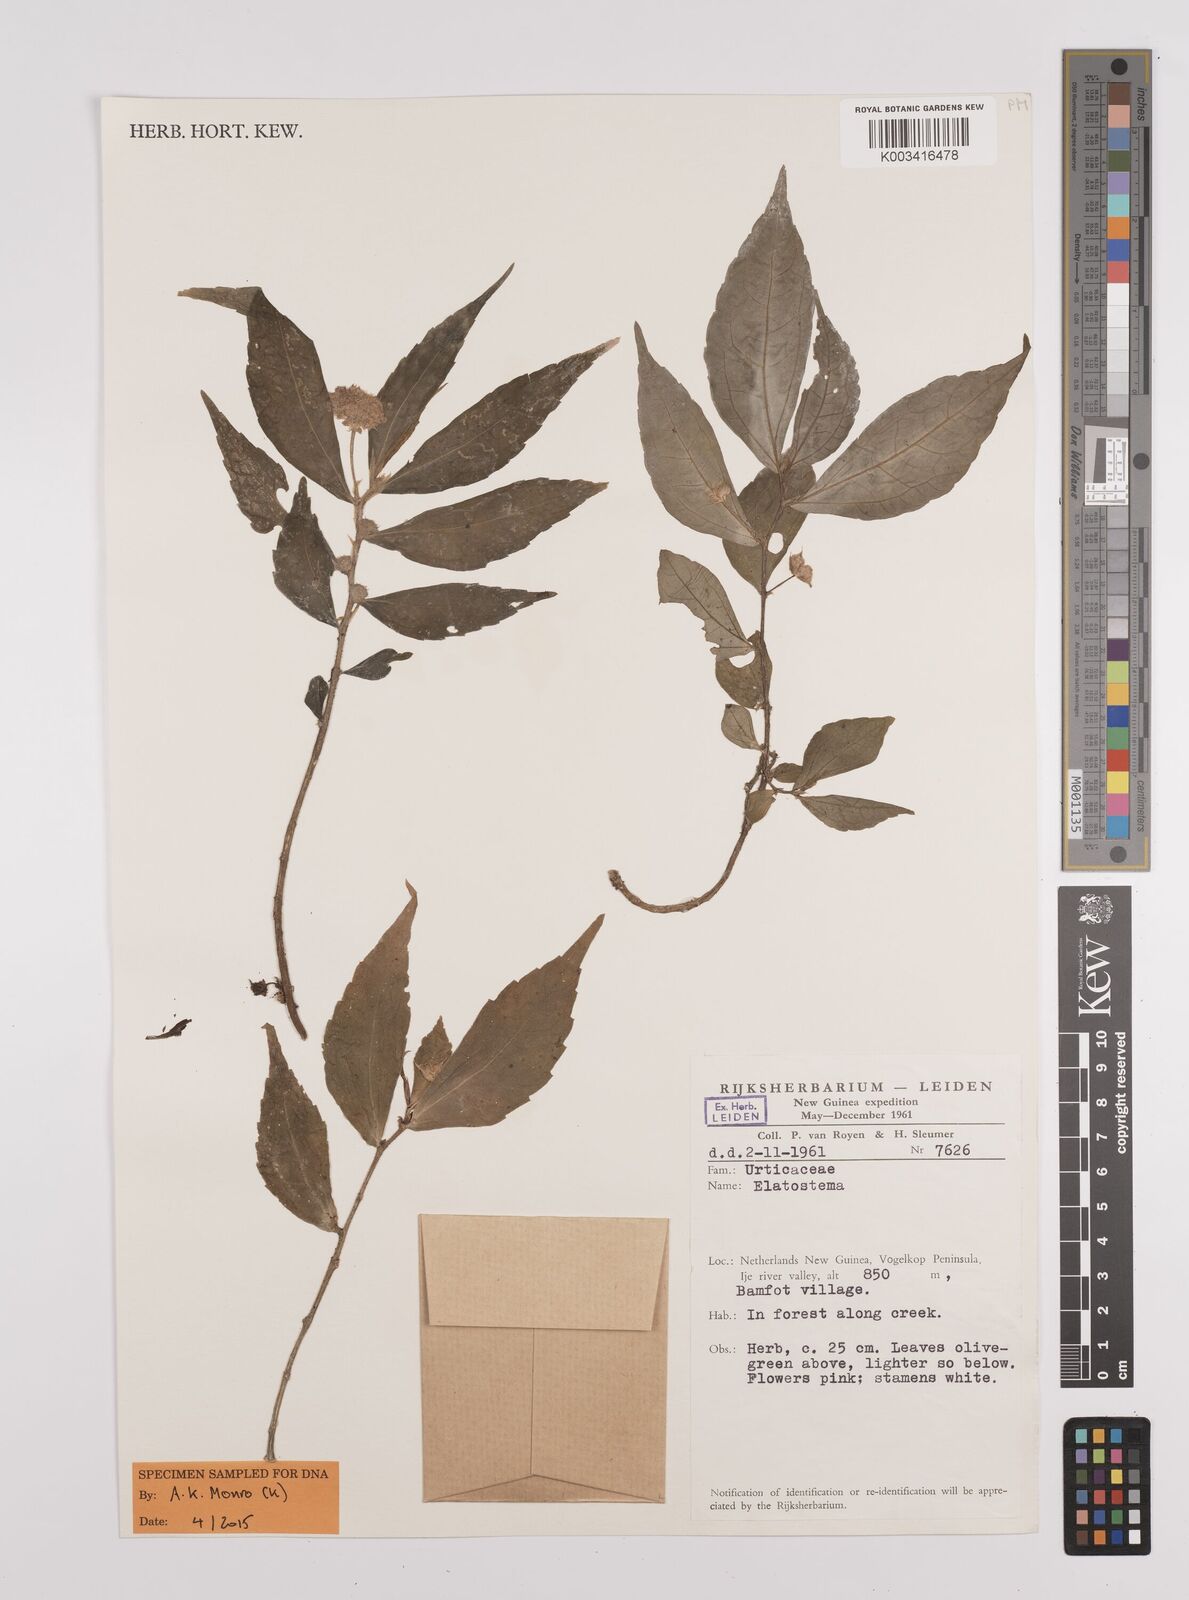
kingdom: Plantae
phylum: Tracheophyta
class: Magnoliopsida
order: Rosales
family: Urticaceae
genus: Elatostema
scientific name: Elatostema
